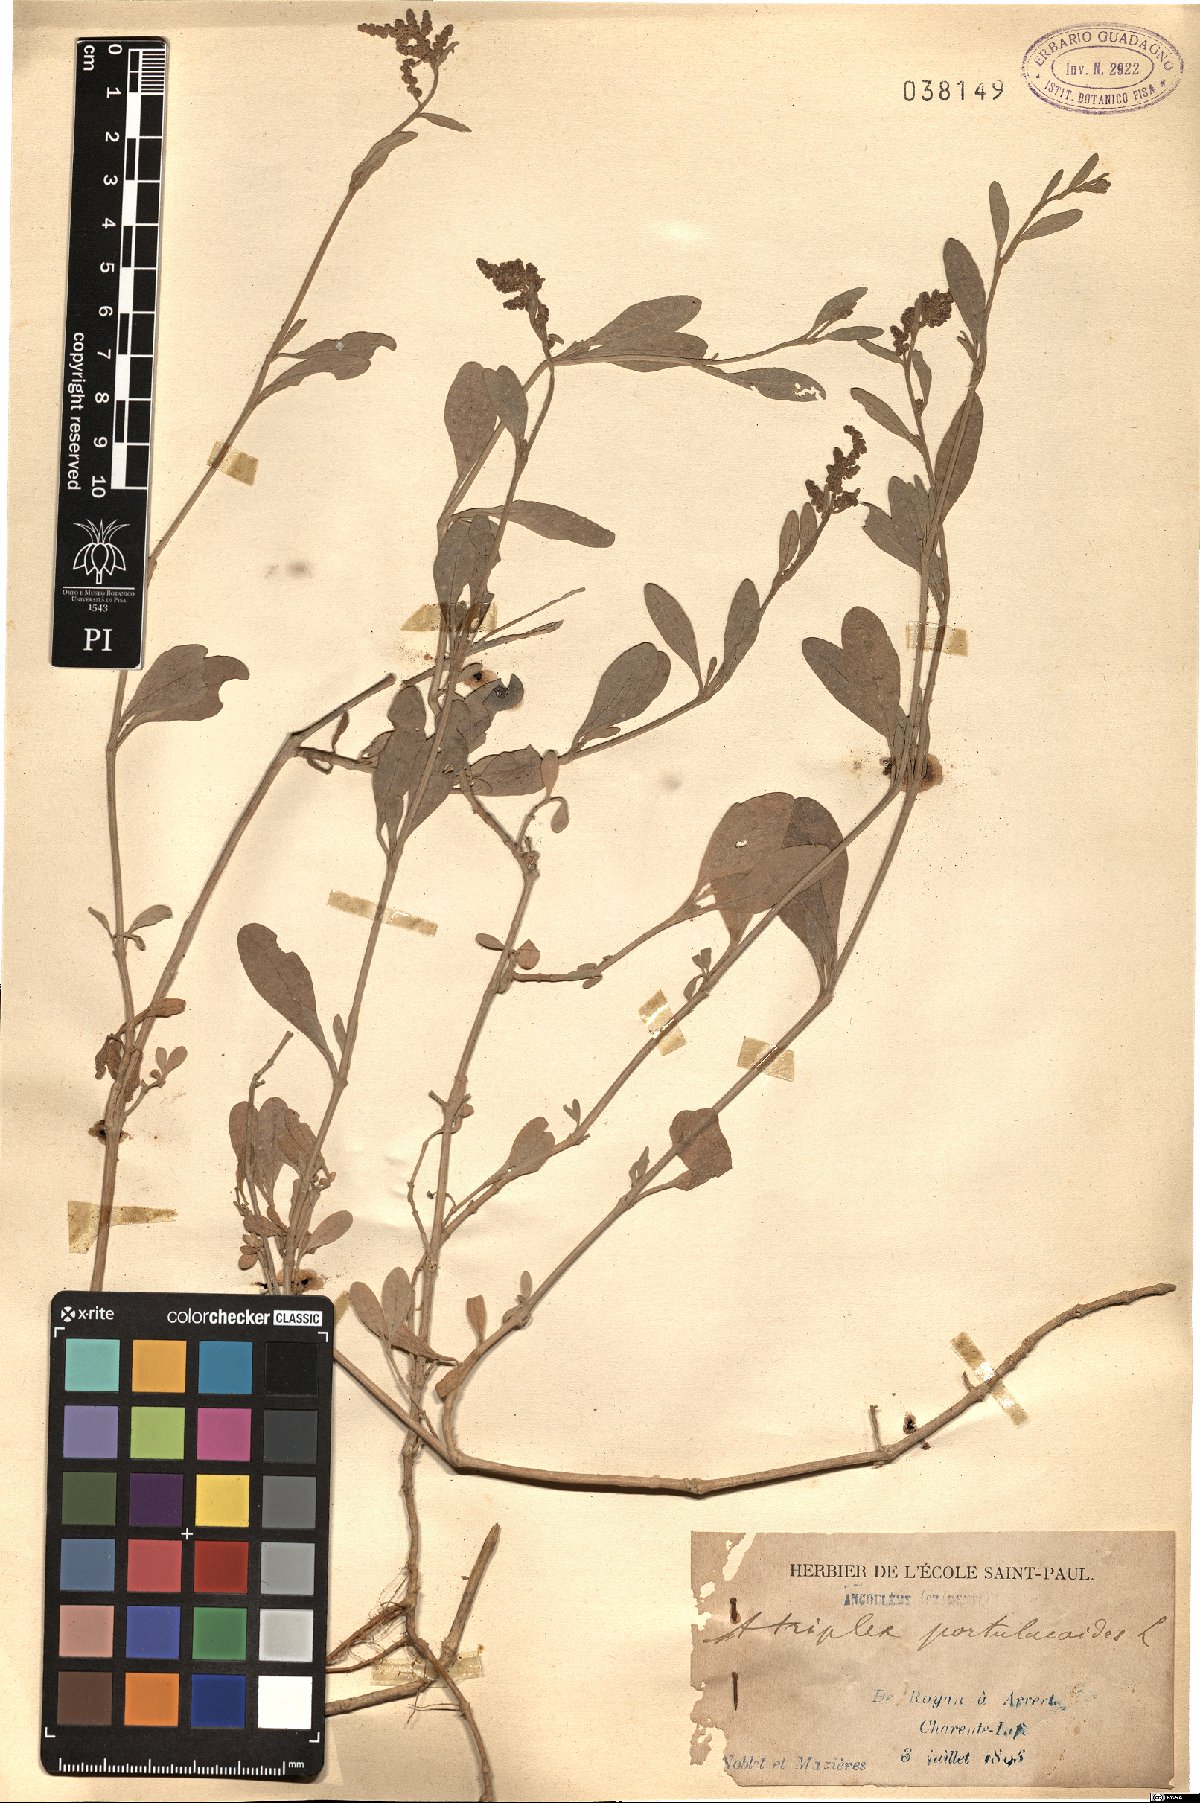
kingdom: Plantae
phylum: Tracheophyta
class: Magnoliopsida
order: Caryophyllales
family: Amaranthaceae
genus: Halimione
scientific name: Halimione portulacoides
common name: Sea-purslane
